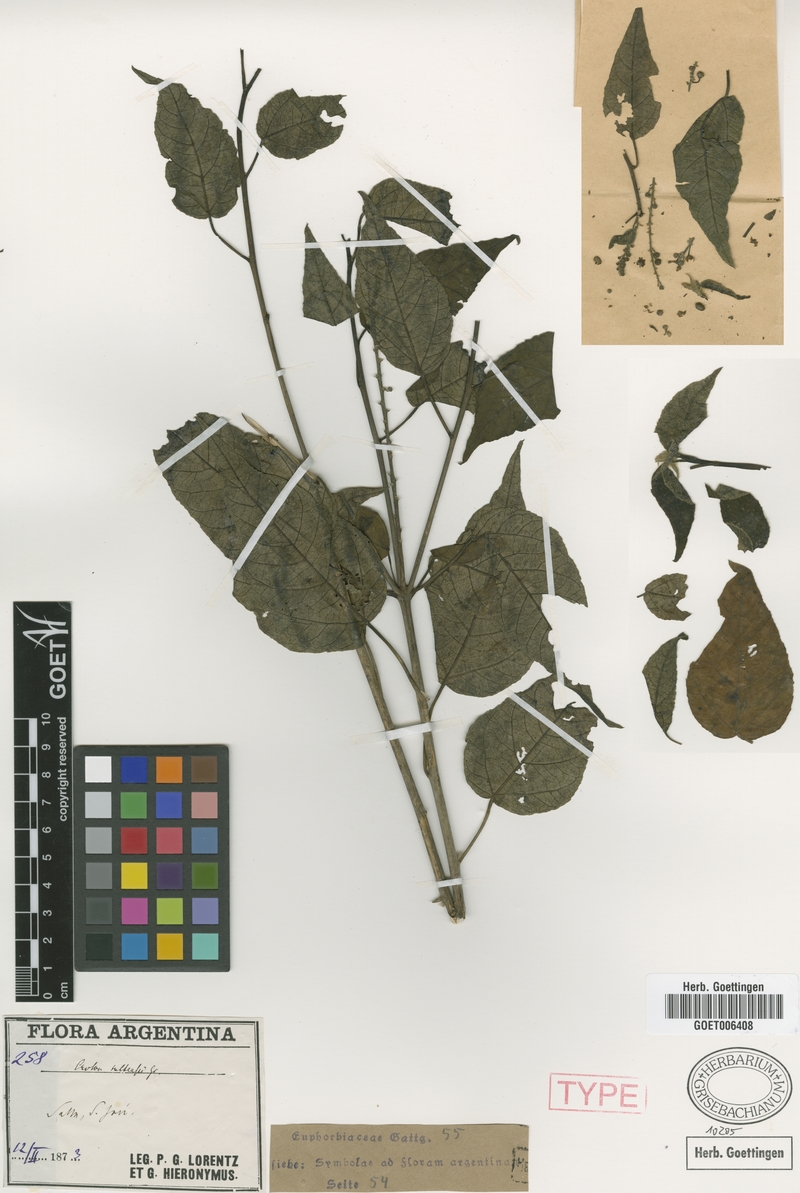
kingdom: Plantae
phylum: Tracheophyta
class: Magnoliopsida
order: Malpighiales
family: Euphorbiaceae
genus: Croton
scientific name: Croton saltensis
